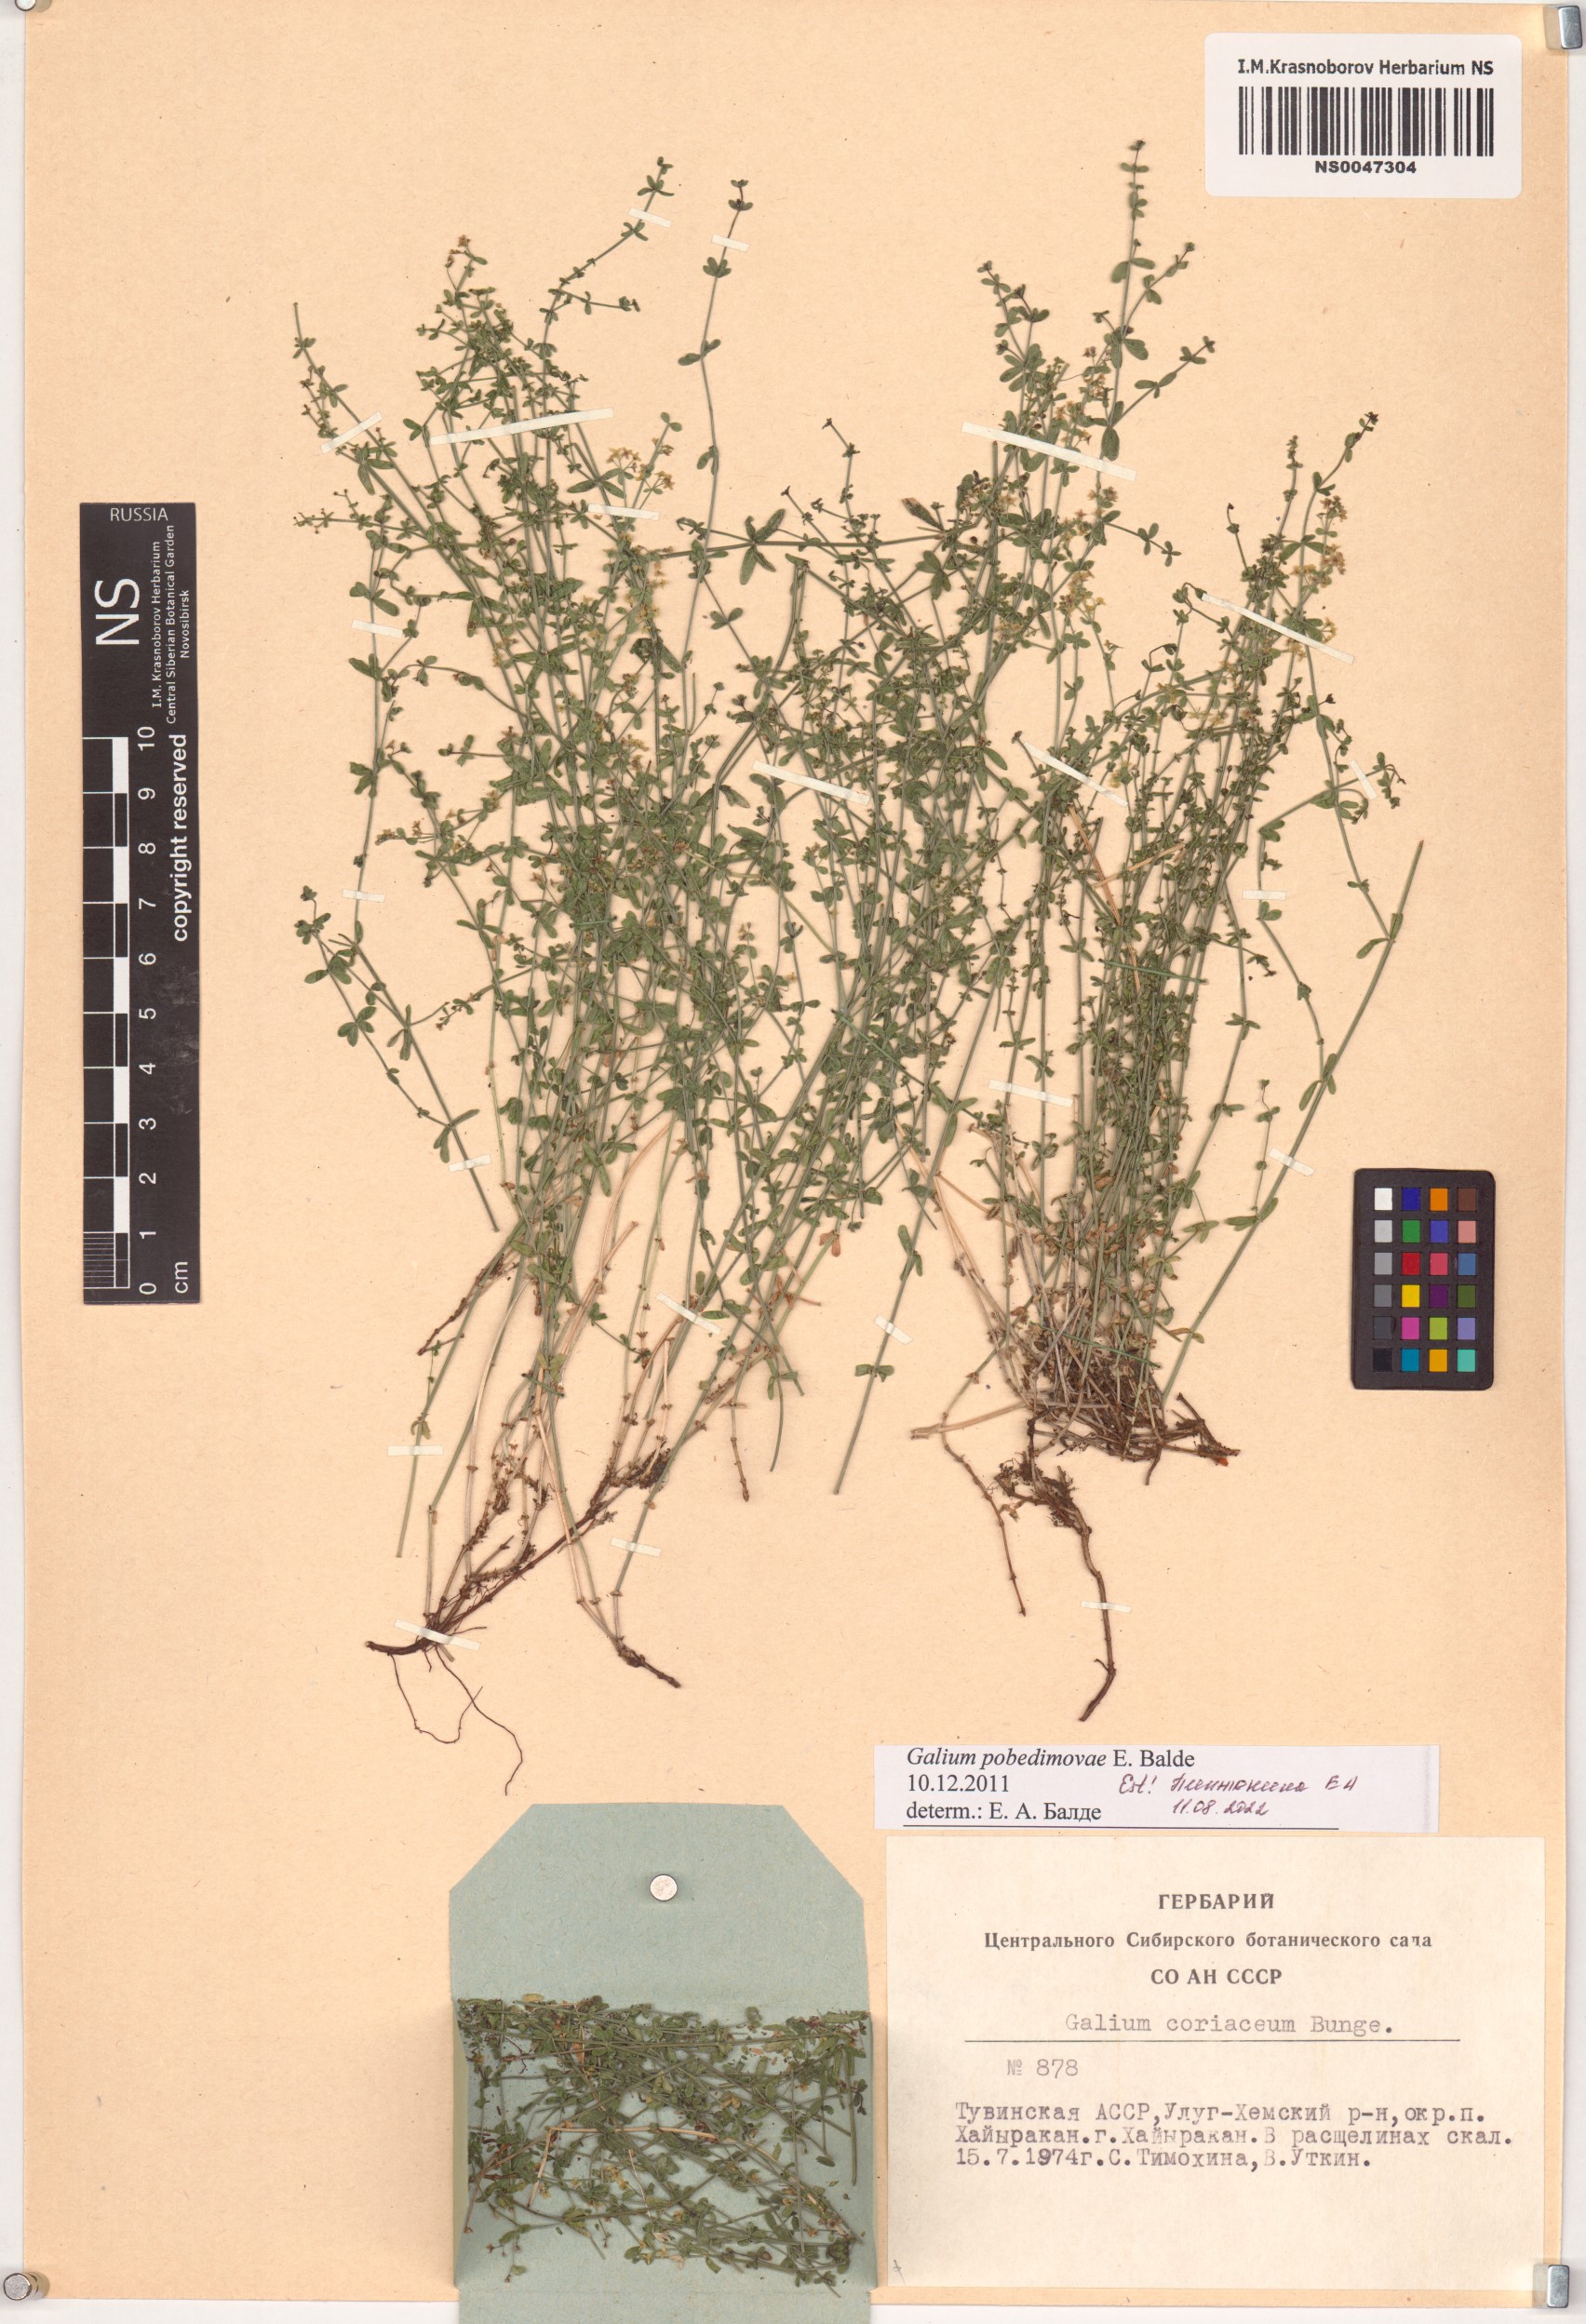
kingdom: Plantae
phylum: Tracheophyta
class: Magnoliopsida
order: Gentianales
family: Rubiaceae
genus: Galium
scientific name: Galium pobedimovae
